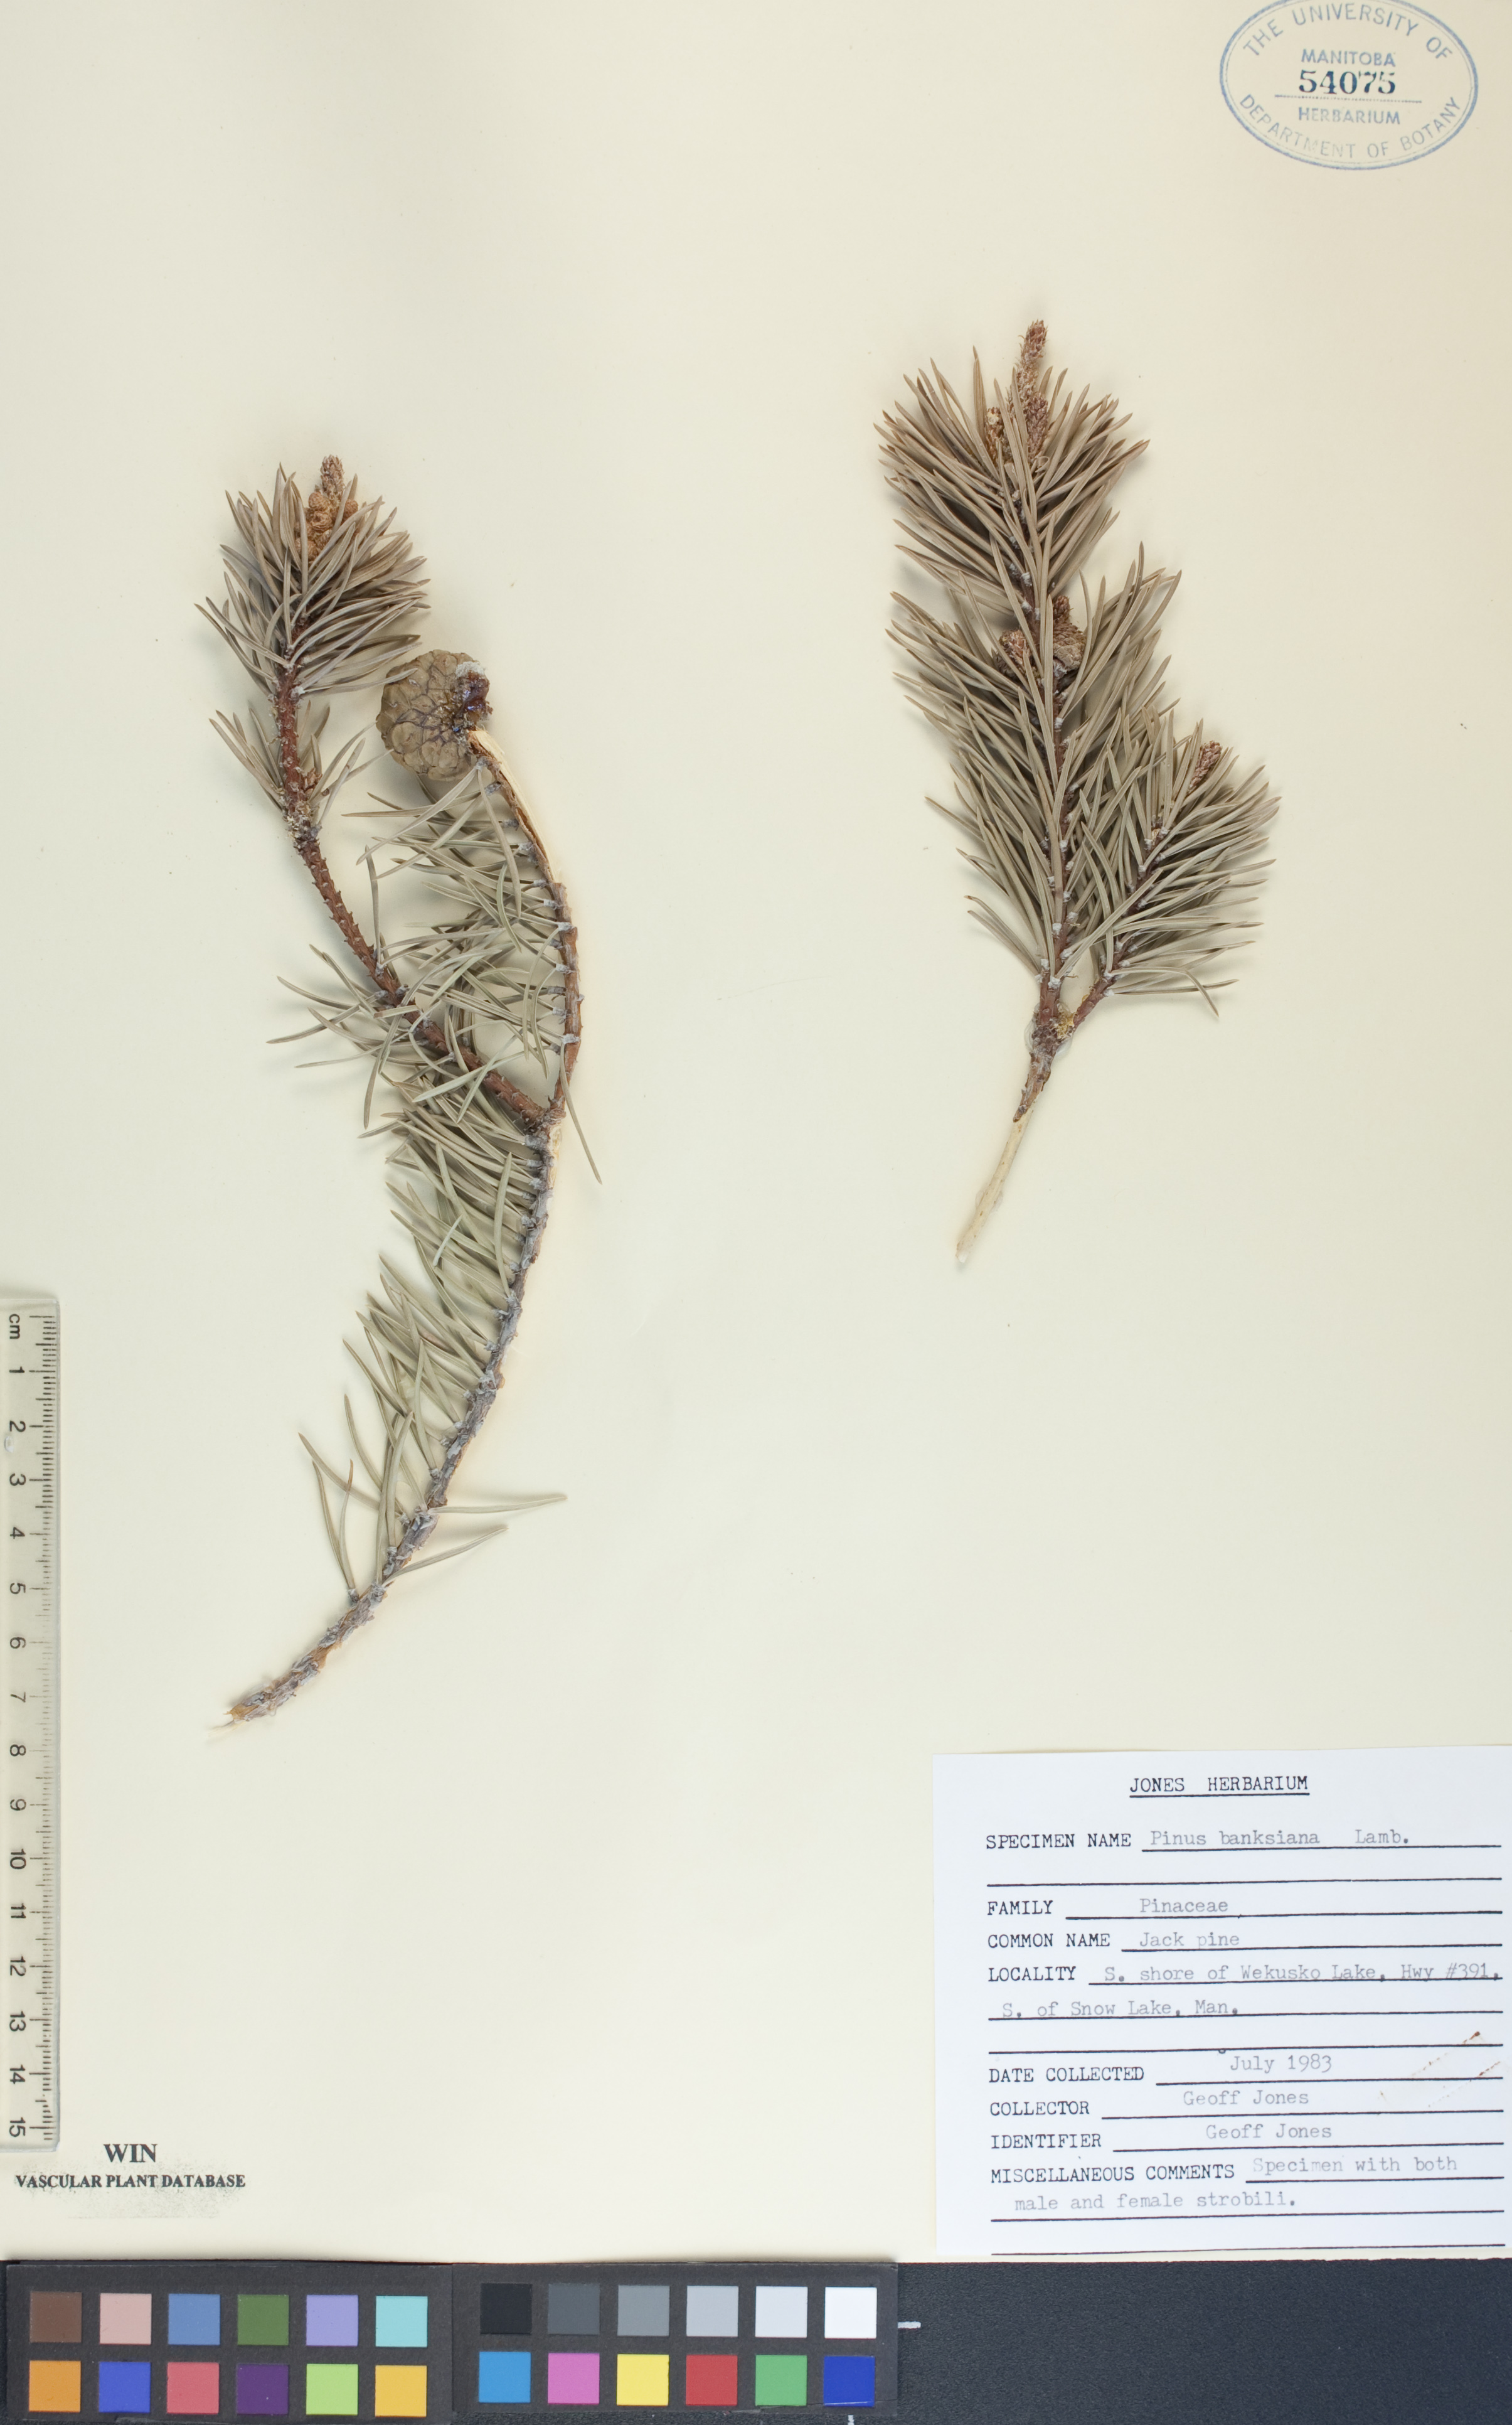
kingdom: Plantae
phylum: Tracheophyta
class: Pinopsida
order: Pinales
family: Pinaceae
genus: Pinus
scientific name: Pinus banksiana
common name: Jack pine
